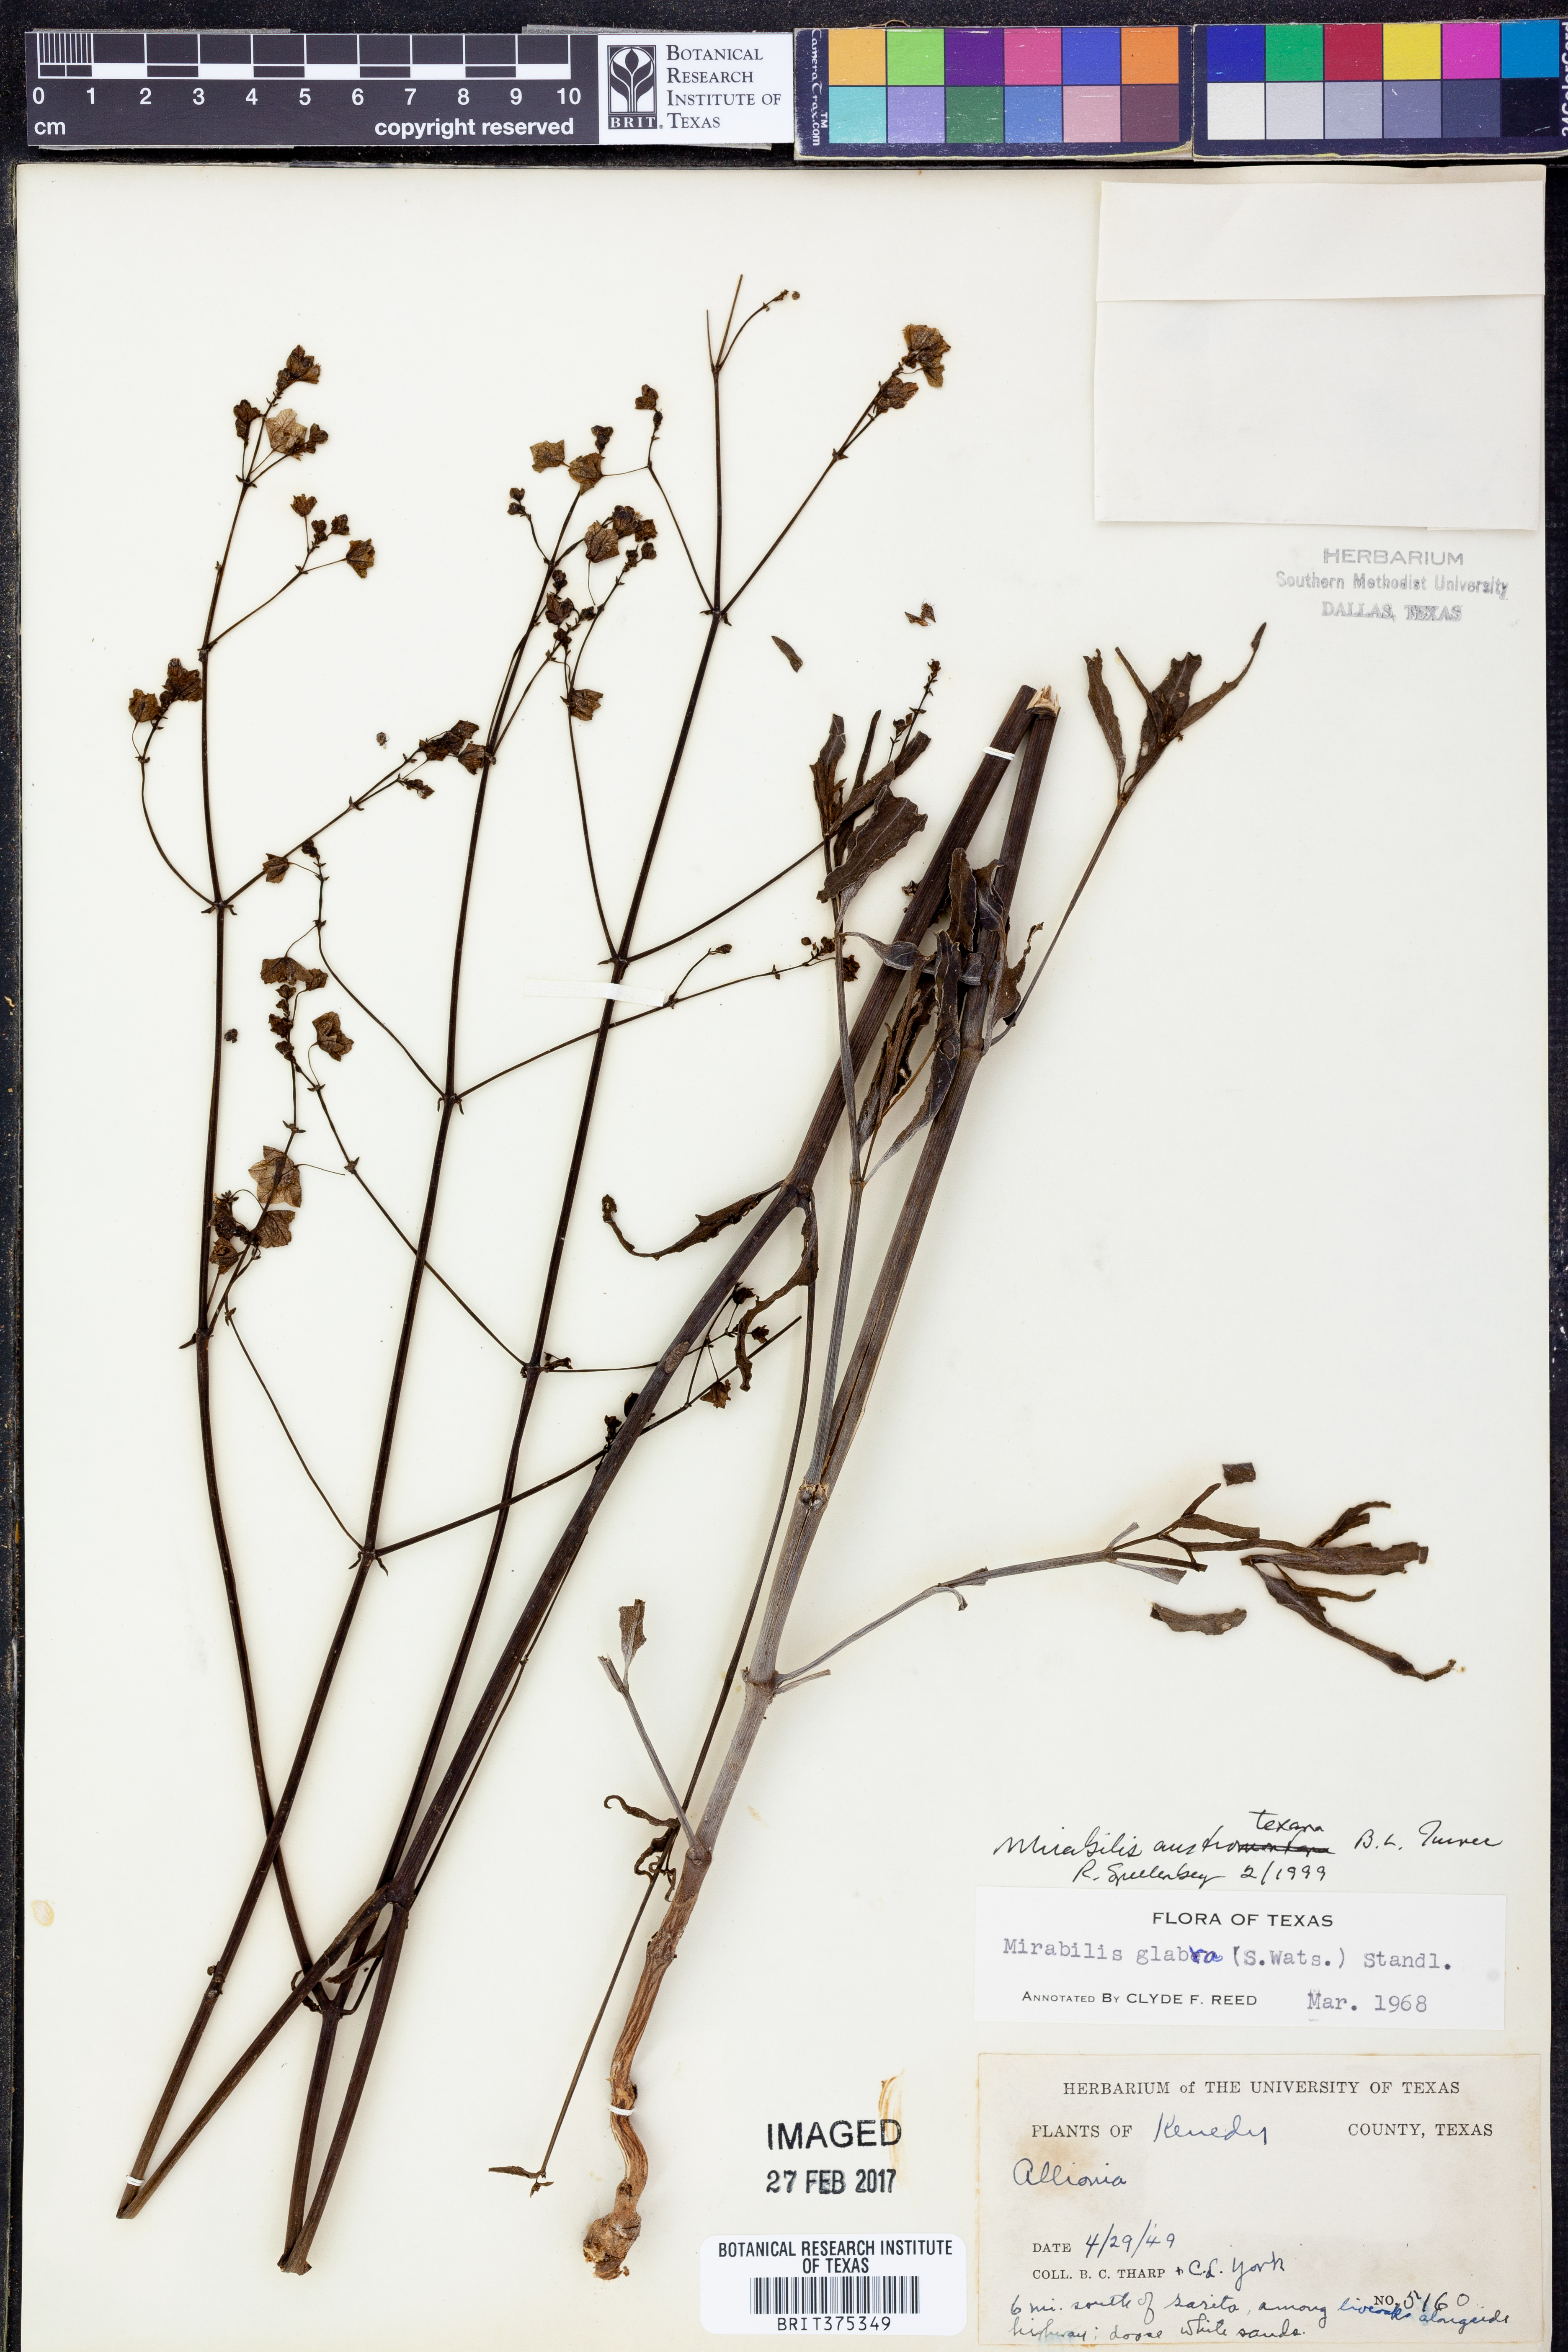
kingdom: Plantae
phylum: Tracheophyta
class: Magnoliopsida
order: Caryophyllales
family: Nyctaginaceae
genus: Mirabilis
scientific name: Mirabilis austrotexana
